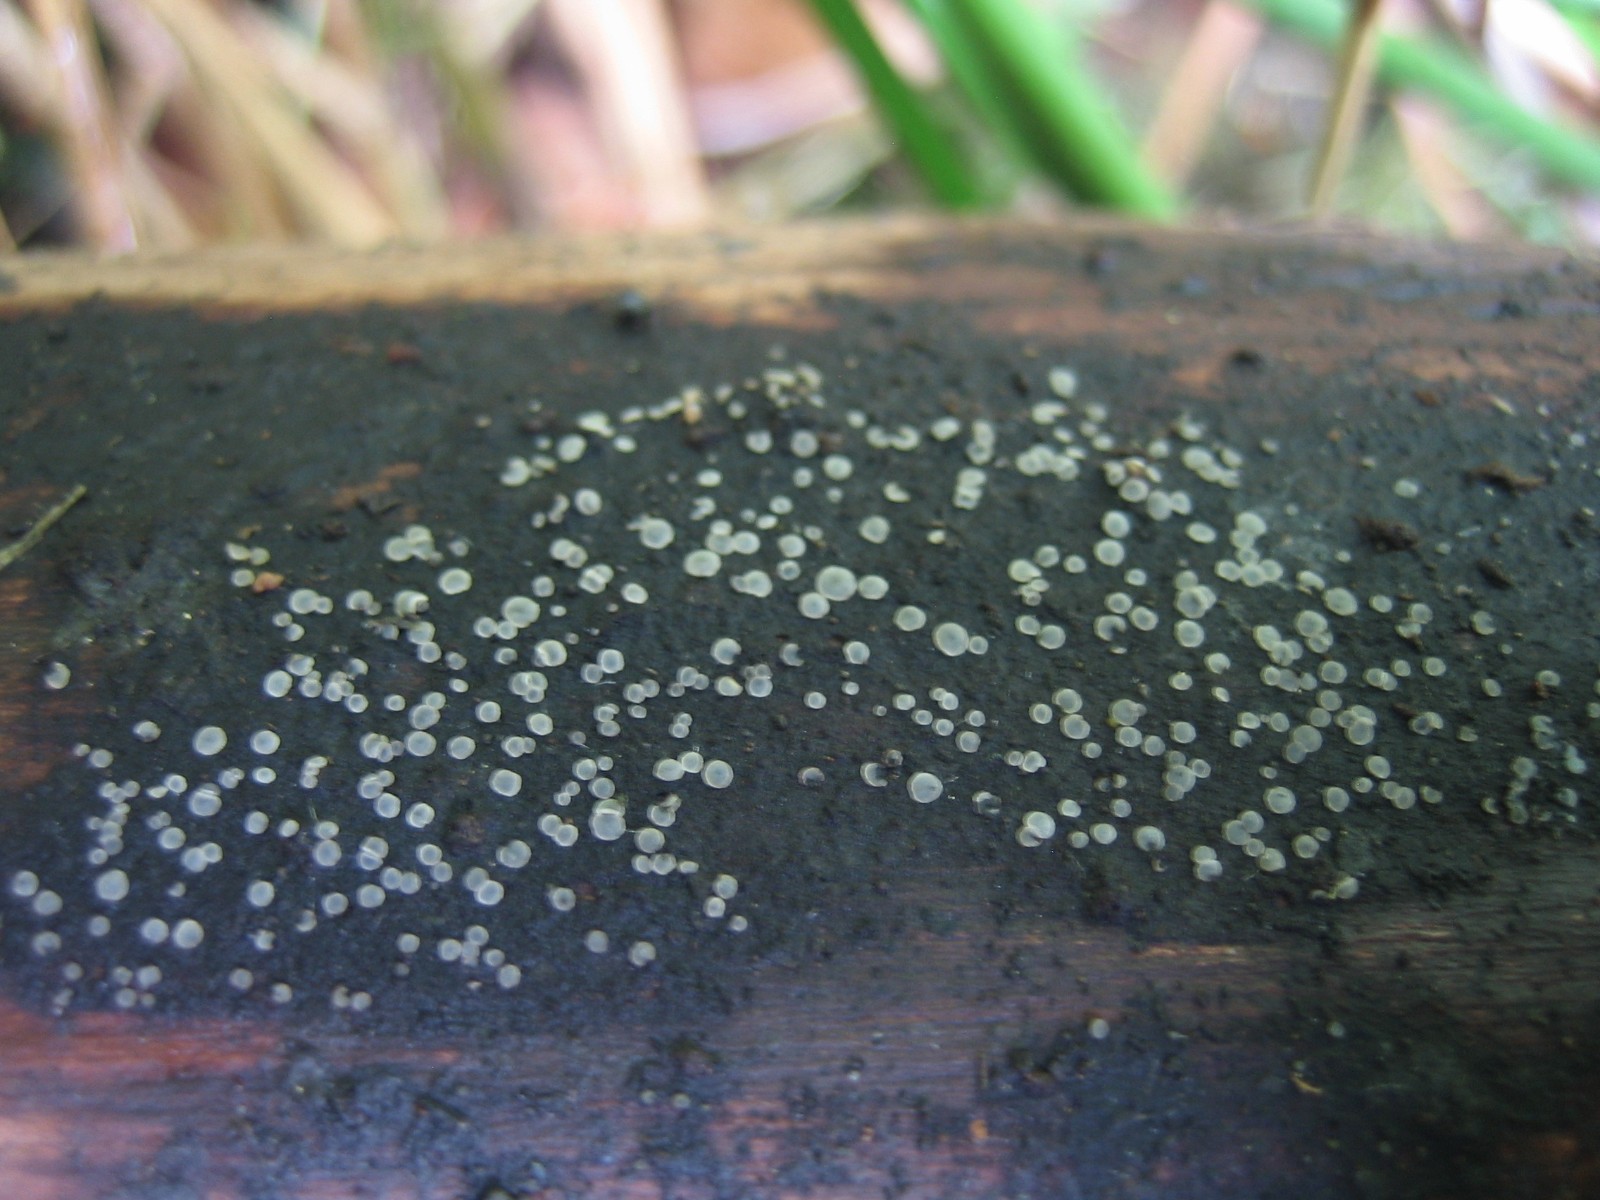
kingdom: Fungi
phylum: Ascomycota
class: Leotiomycetes
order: Helotiales
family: Mollisiaceae
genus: Mollisia
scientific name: Mollisia
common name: gråskive
